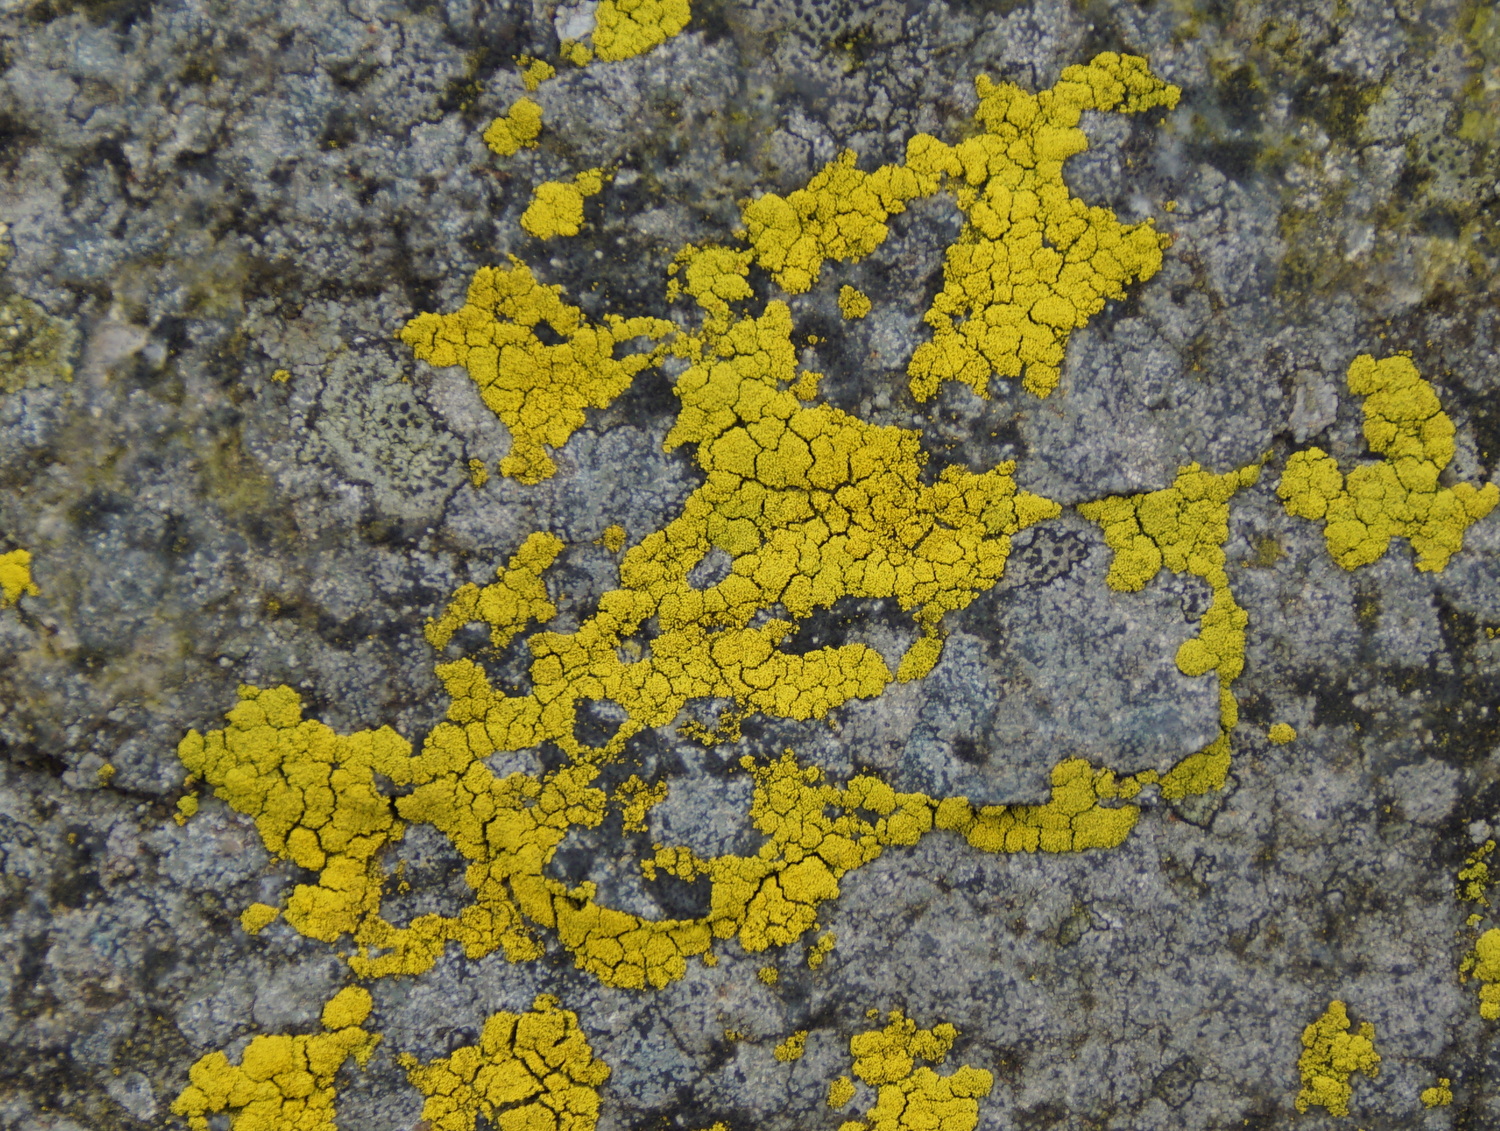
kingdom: Fungi
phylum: Ascomycota
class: Candelariomycetes
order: Candelariales
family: Candelariaceae
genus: Candelariella
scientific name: Candelariella vitellina
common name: almindelig æggeblommelav
